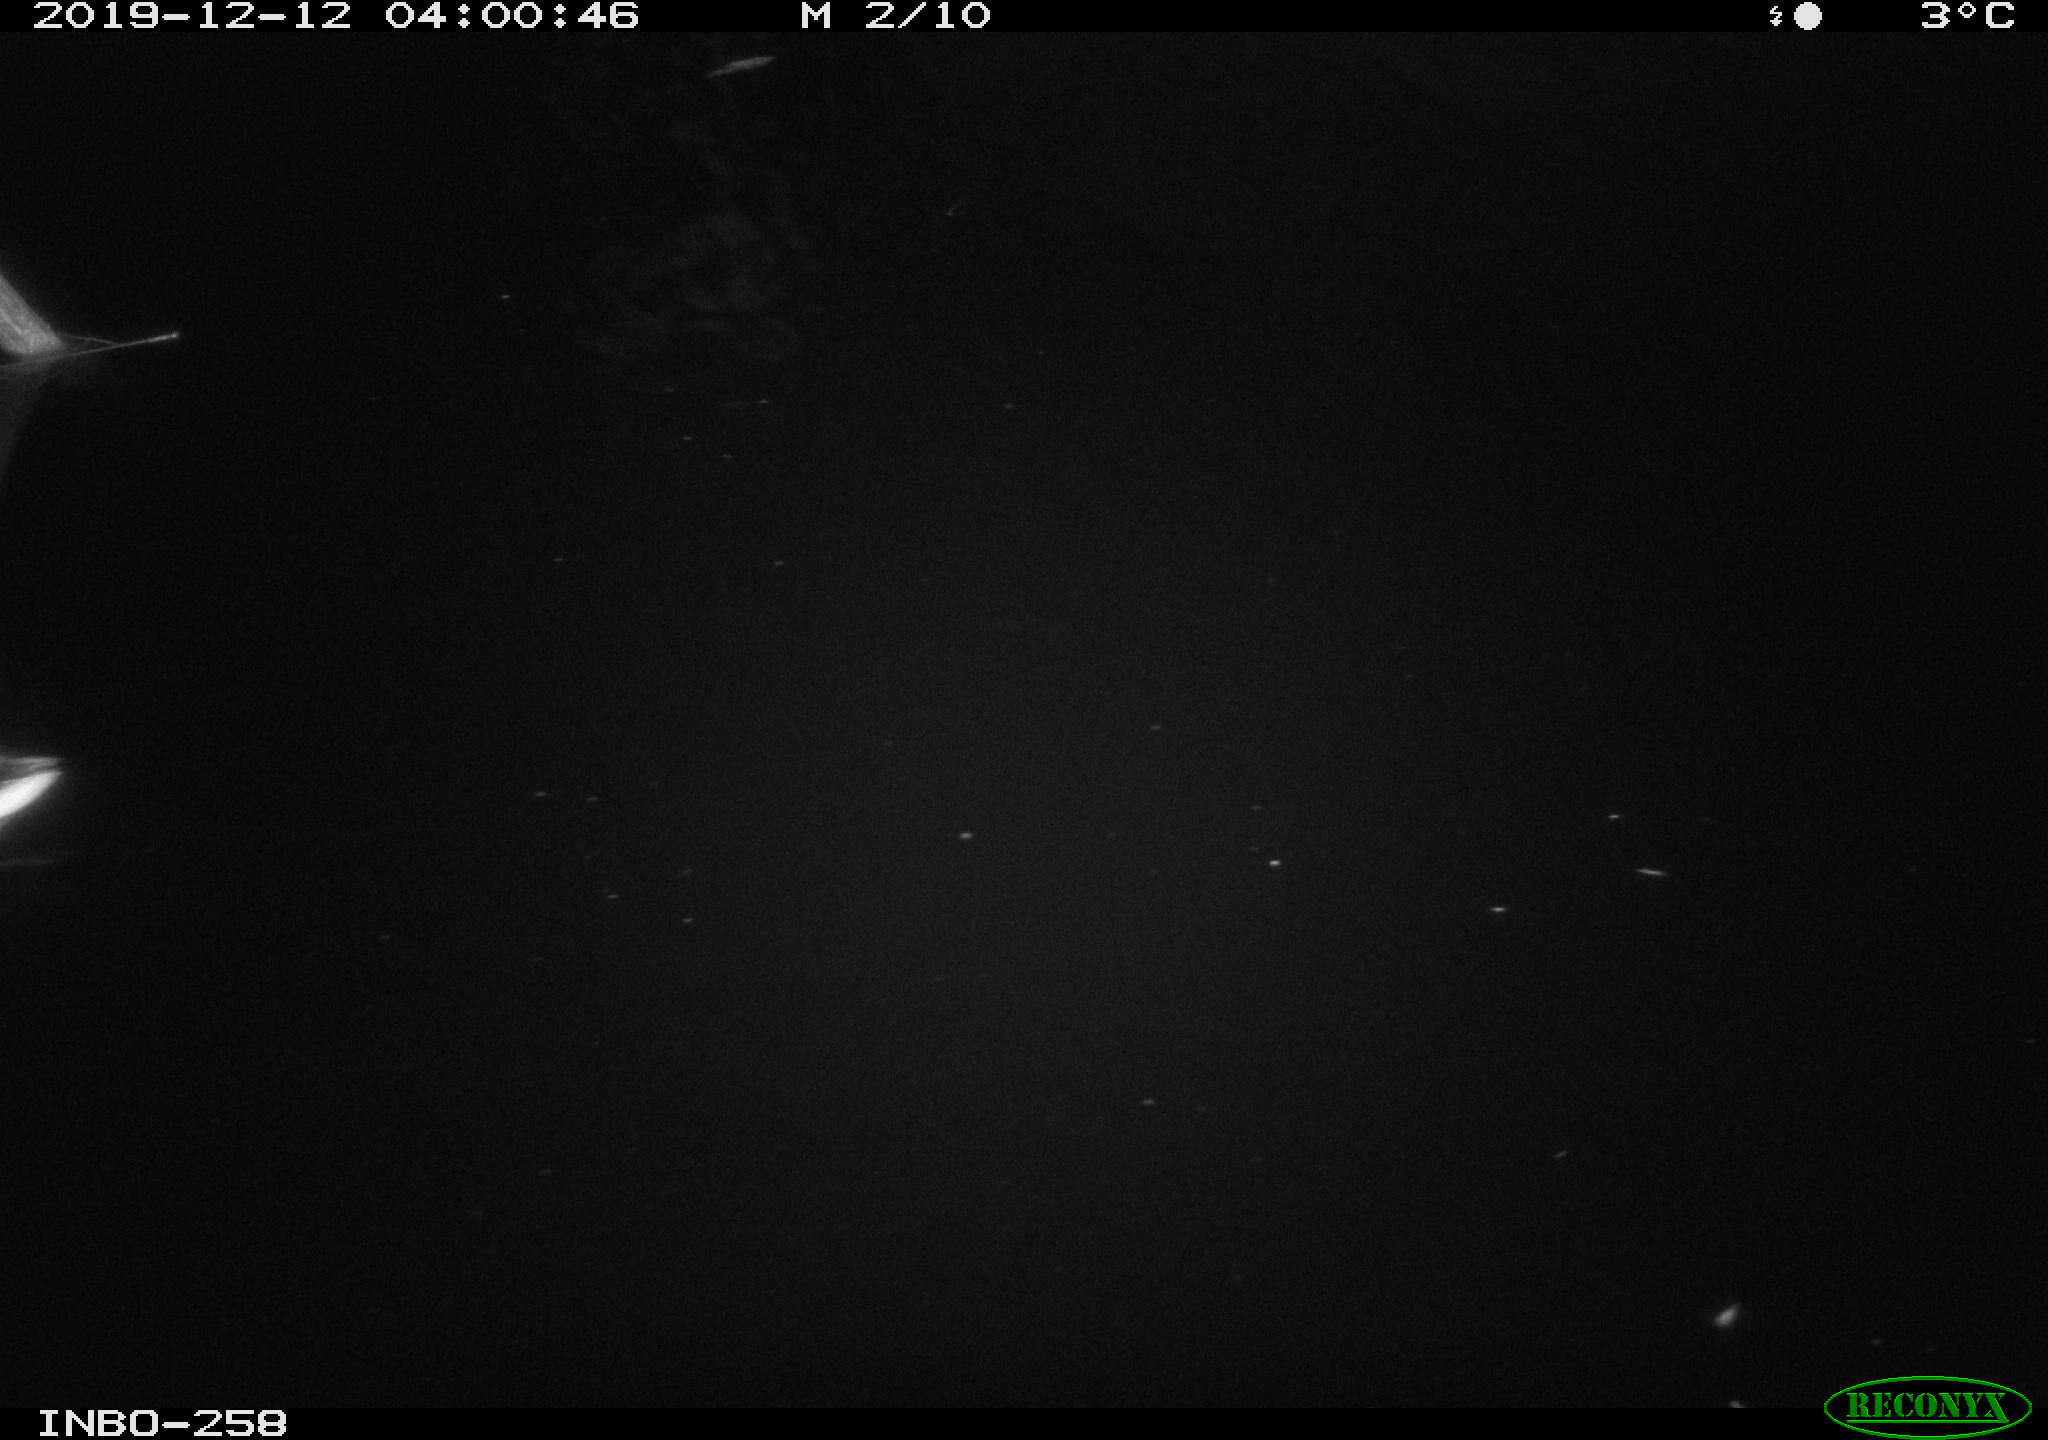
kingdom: Animalia
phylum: Chordata
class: Aves
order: Anseriformes
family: Anatidae
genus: Anas
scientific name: Anas platyrhynchos
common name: Mallard
